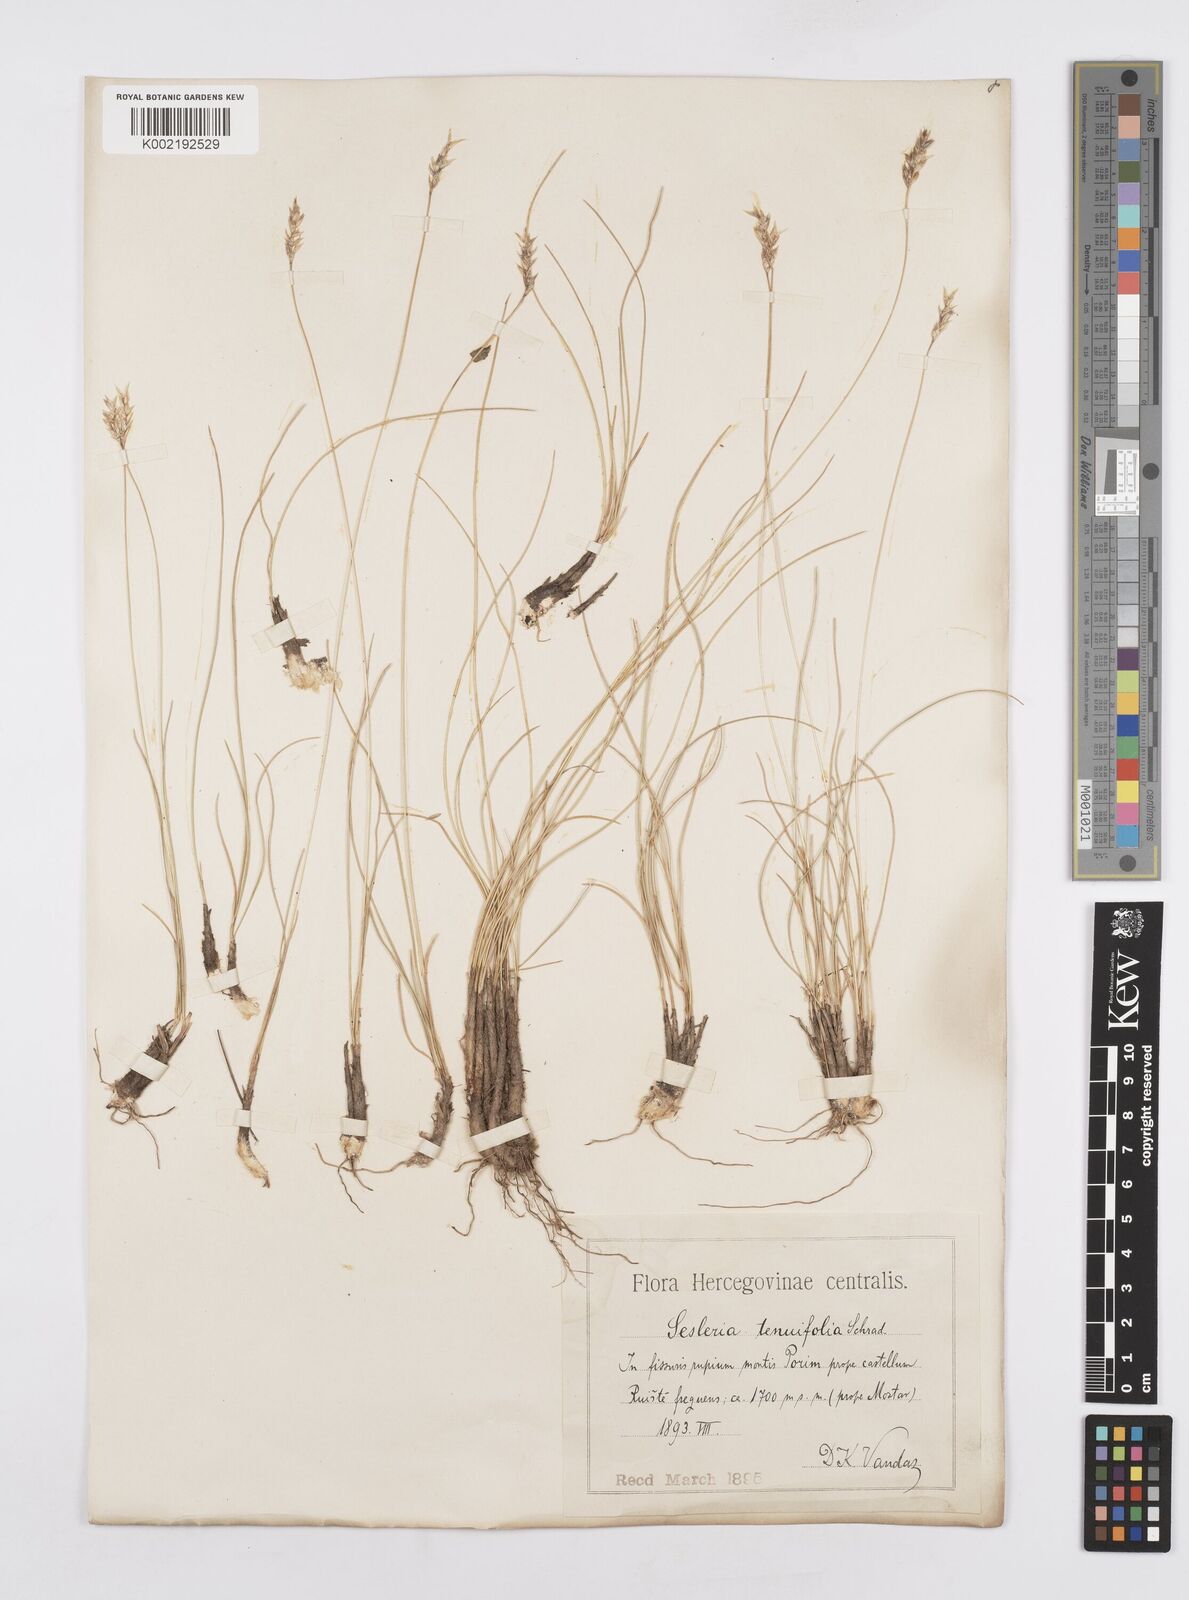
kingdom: Plantae
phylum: Tracheophyta
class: Liliopsida
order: Poales
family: Poaceae
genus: Sesleria
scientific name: Sesleria juncifolia
